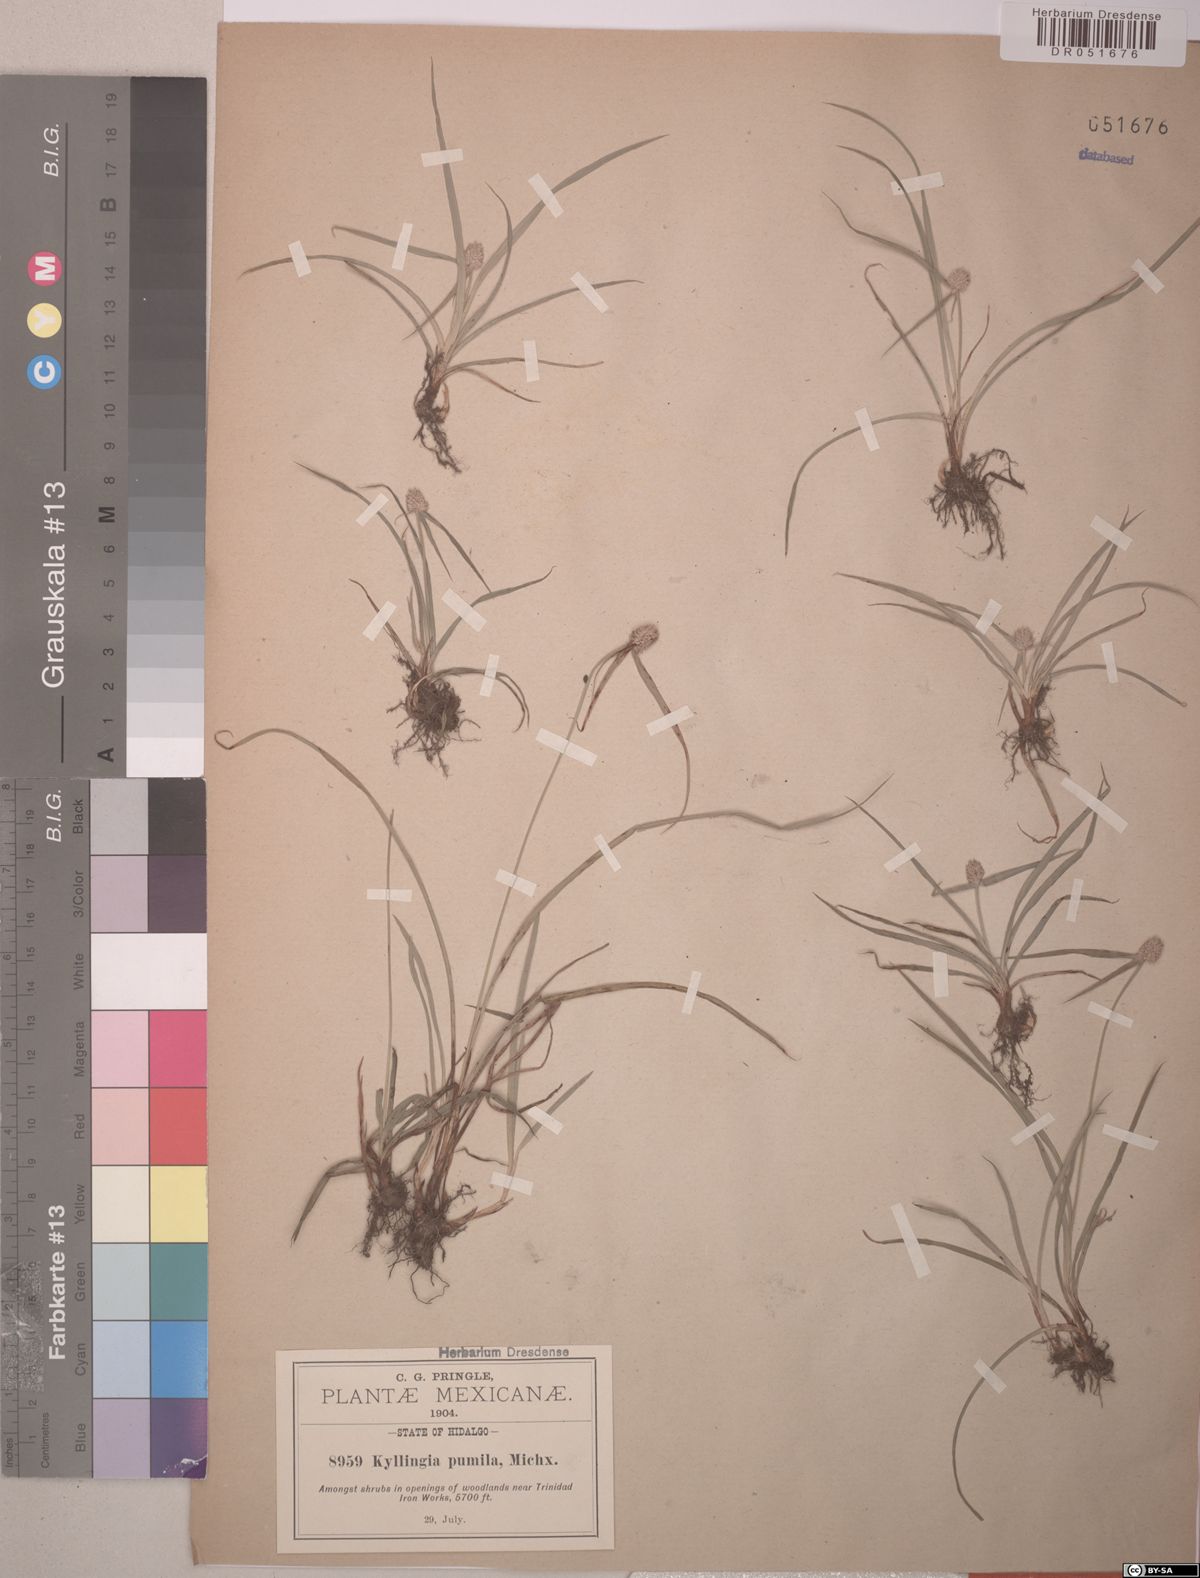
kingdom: Plantae
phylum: Tracheophyta
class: Liliopsida
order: Poales
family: Cyperaceae
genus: Cyperus
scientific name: Cyperus hortensis
